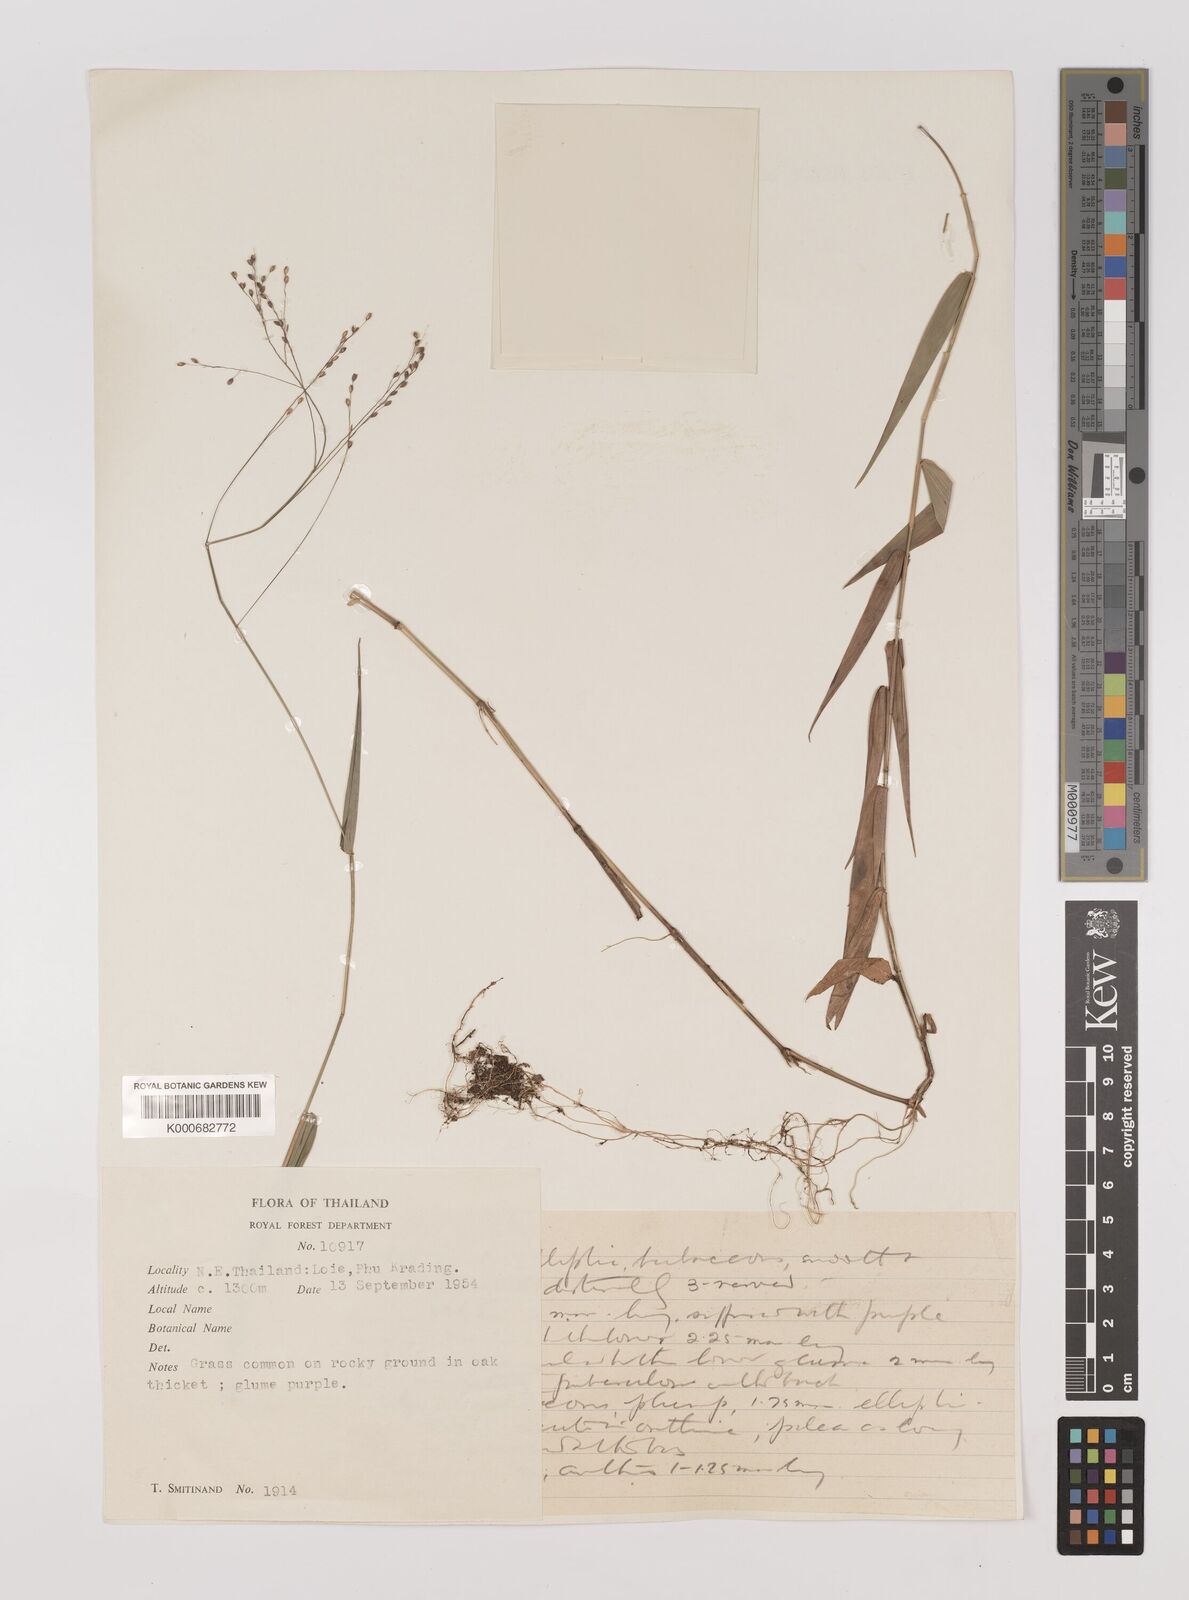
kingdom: Plantae
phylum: Tracheophyta
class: Liliopsida
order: Poales
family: Poaceae
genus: Panicum
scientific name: Panicum notatum
